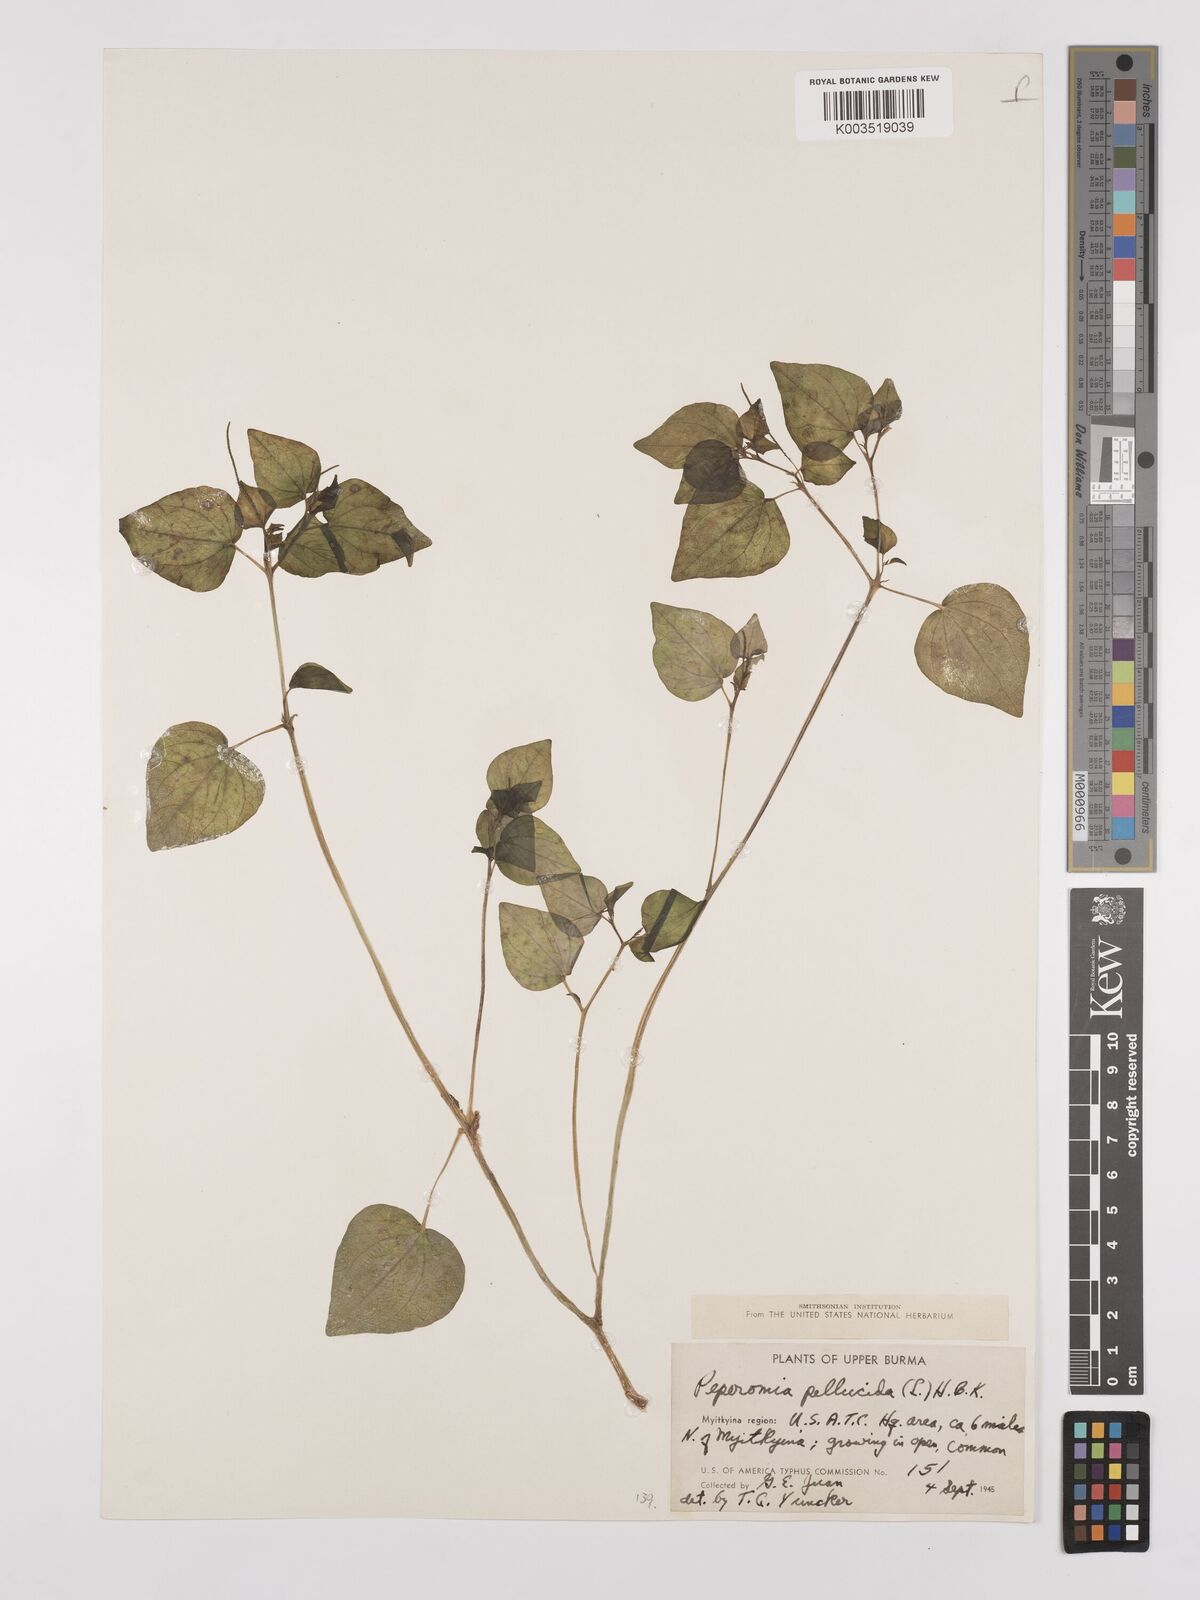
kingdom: Plantae
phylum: Tracheophyta
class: Magnoliopsida
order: Piperales
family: Piperaceae
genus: Peperomia
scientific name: Peperomia pellucida
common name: Man to man
